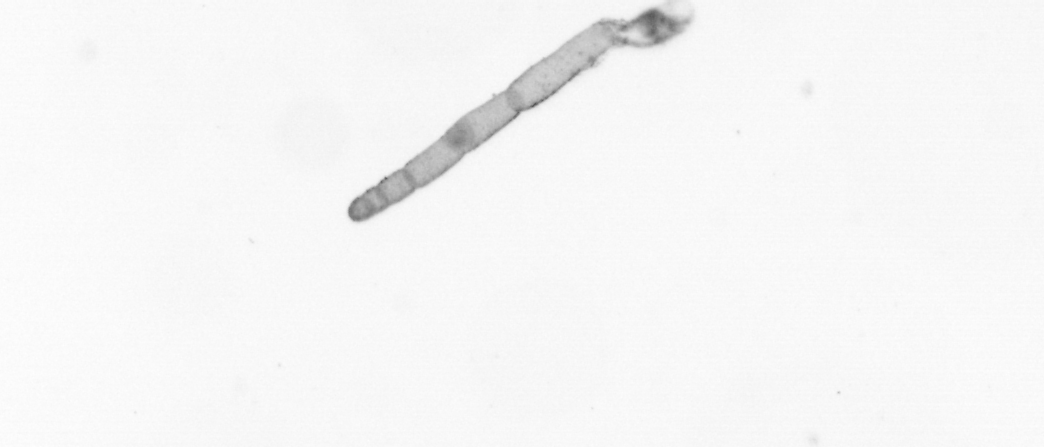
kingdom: Chromista
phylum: Ochrophyta
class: Bacillariophyceae
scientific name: Bacillariophyceae
